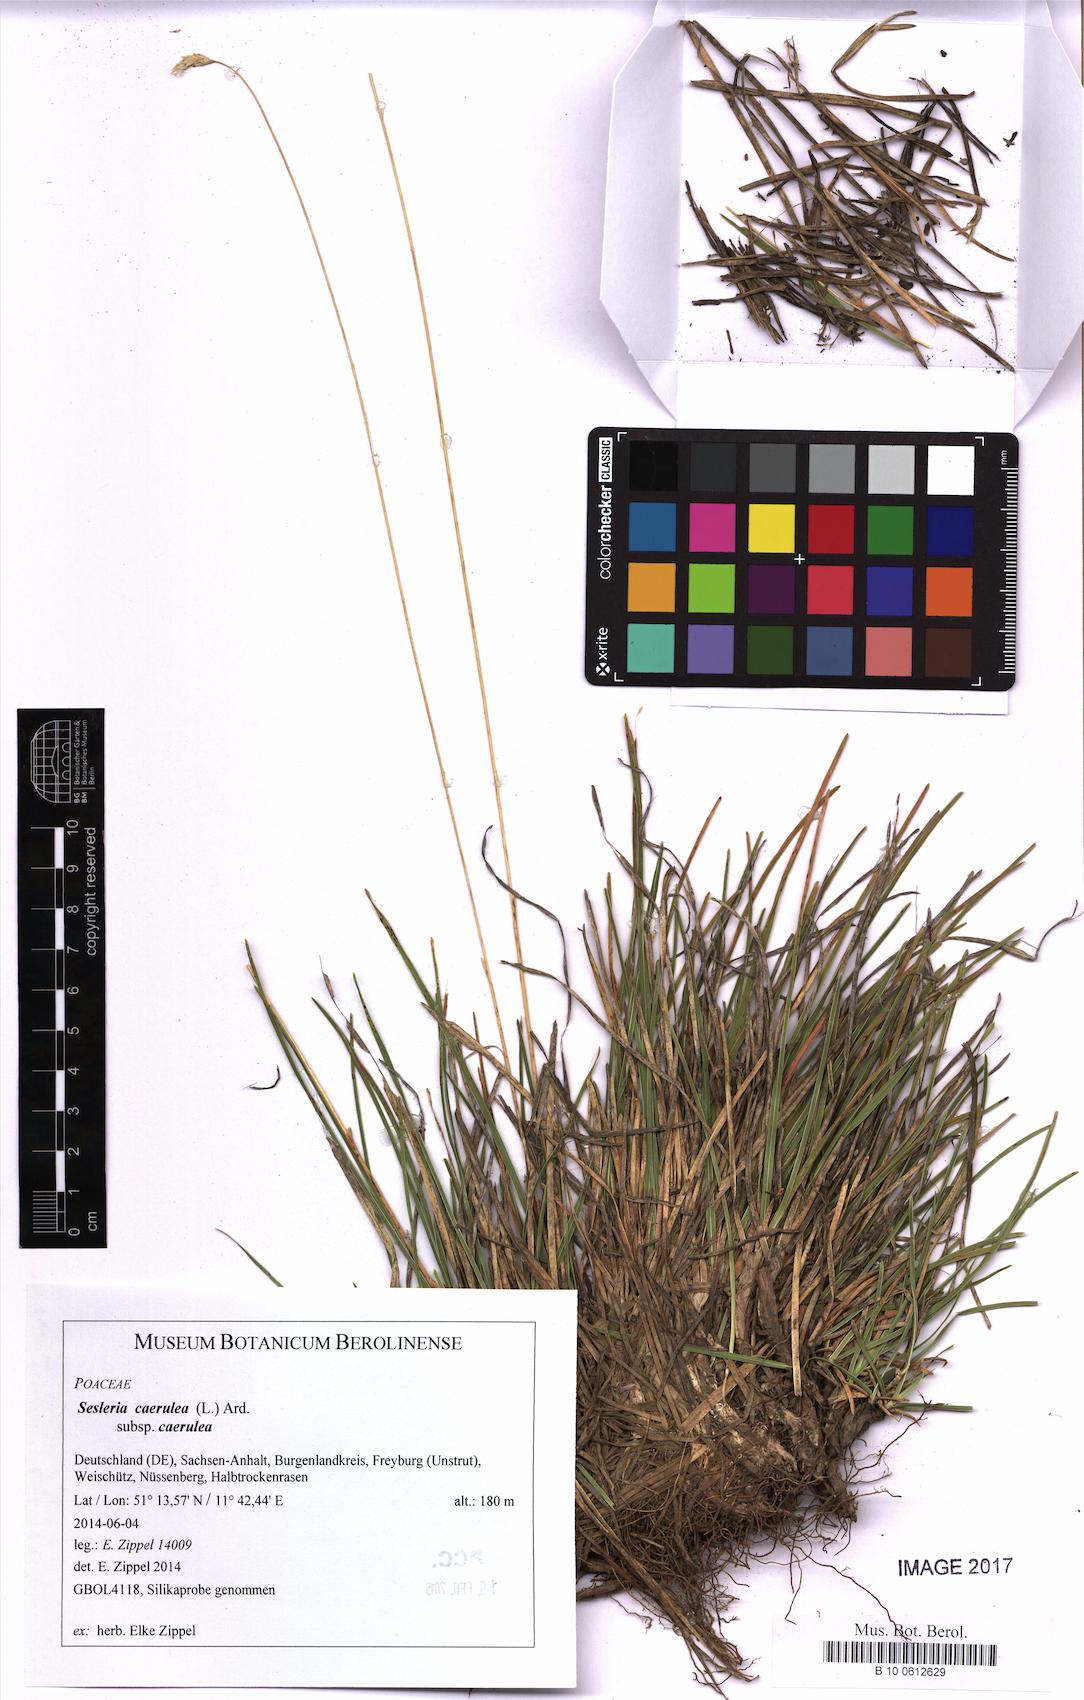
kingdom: Plantae
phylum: Tracheophyta
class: Liliopsida
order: Poales
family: Poaceae
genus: Sesleria
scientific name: Sesleria caerulea
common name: Blue moor-grass
